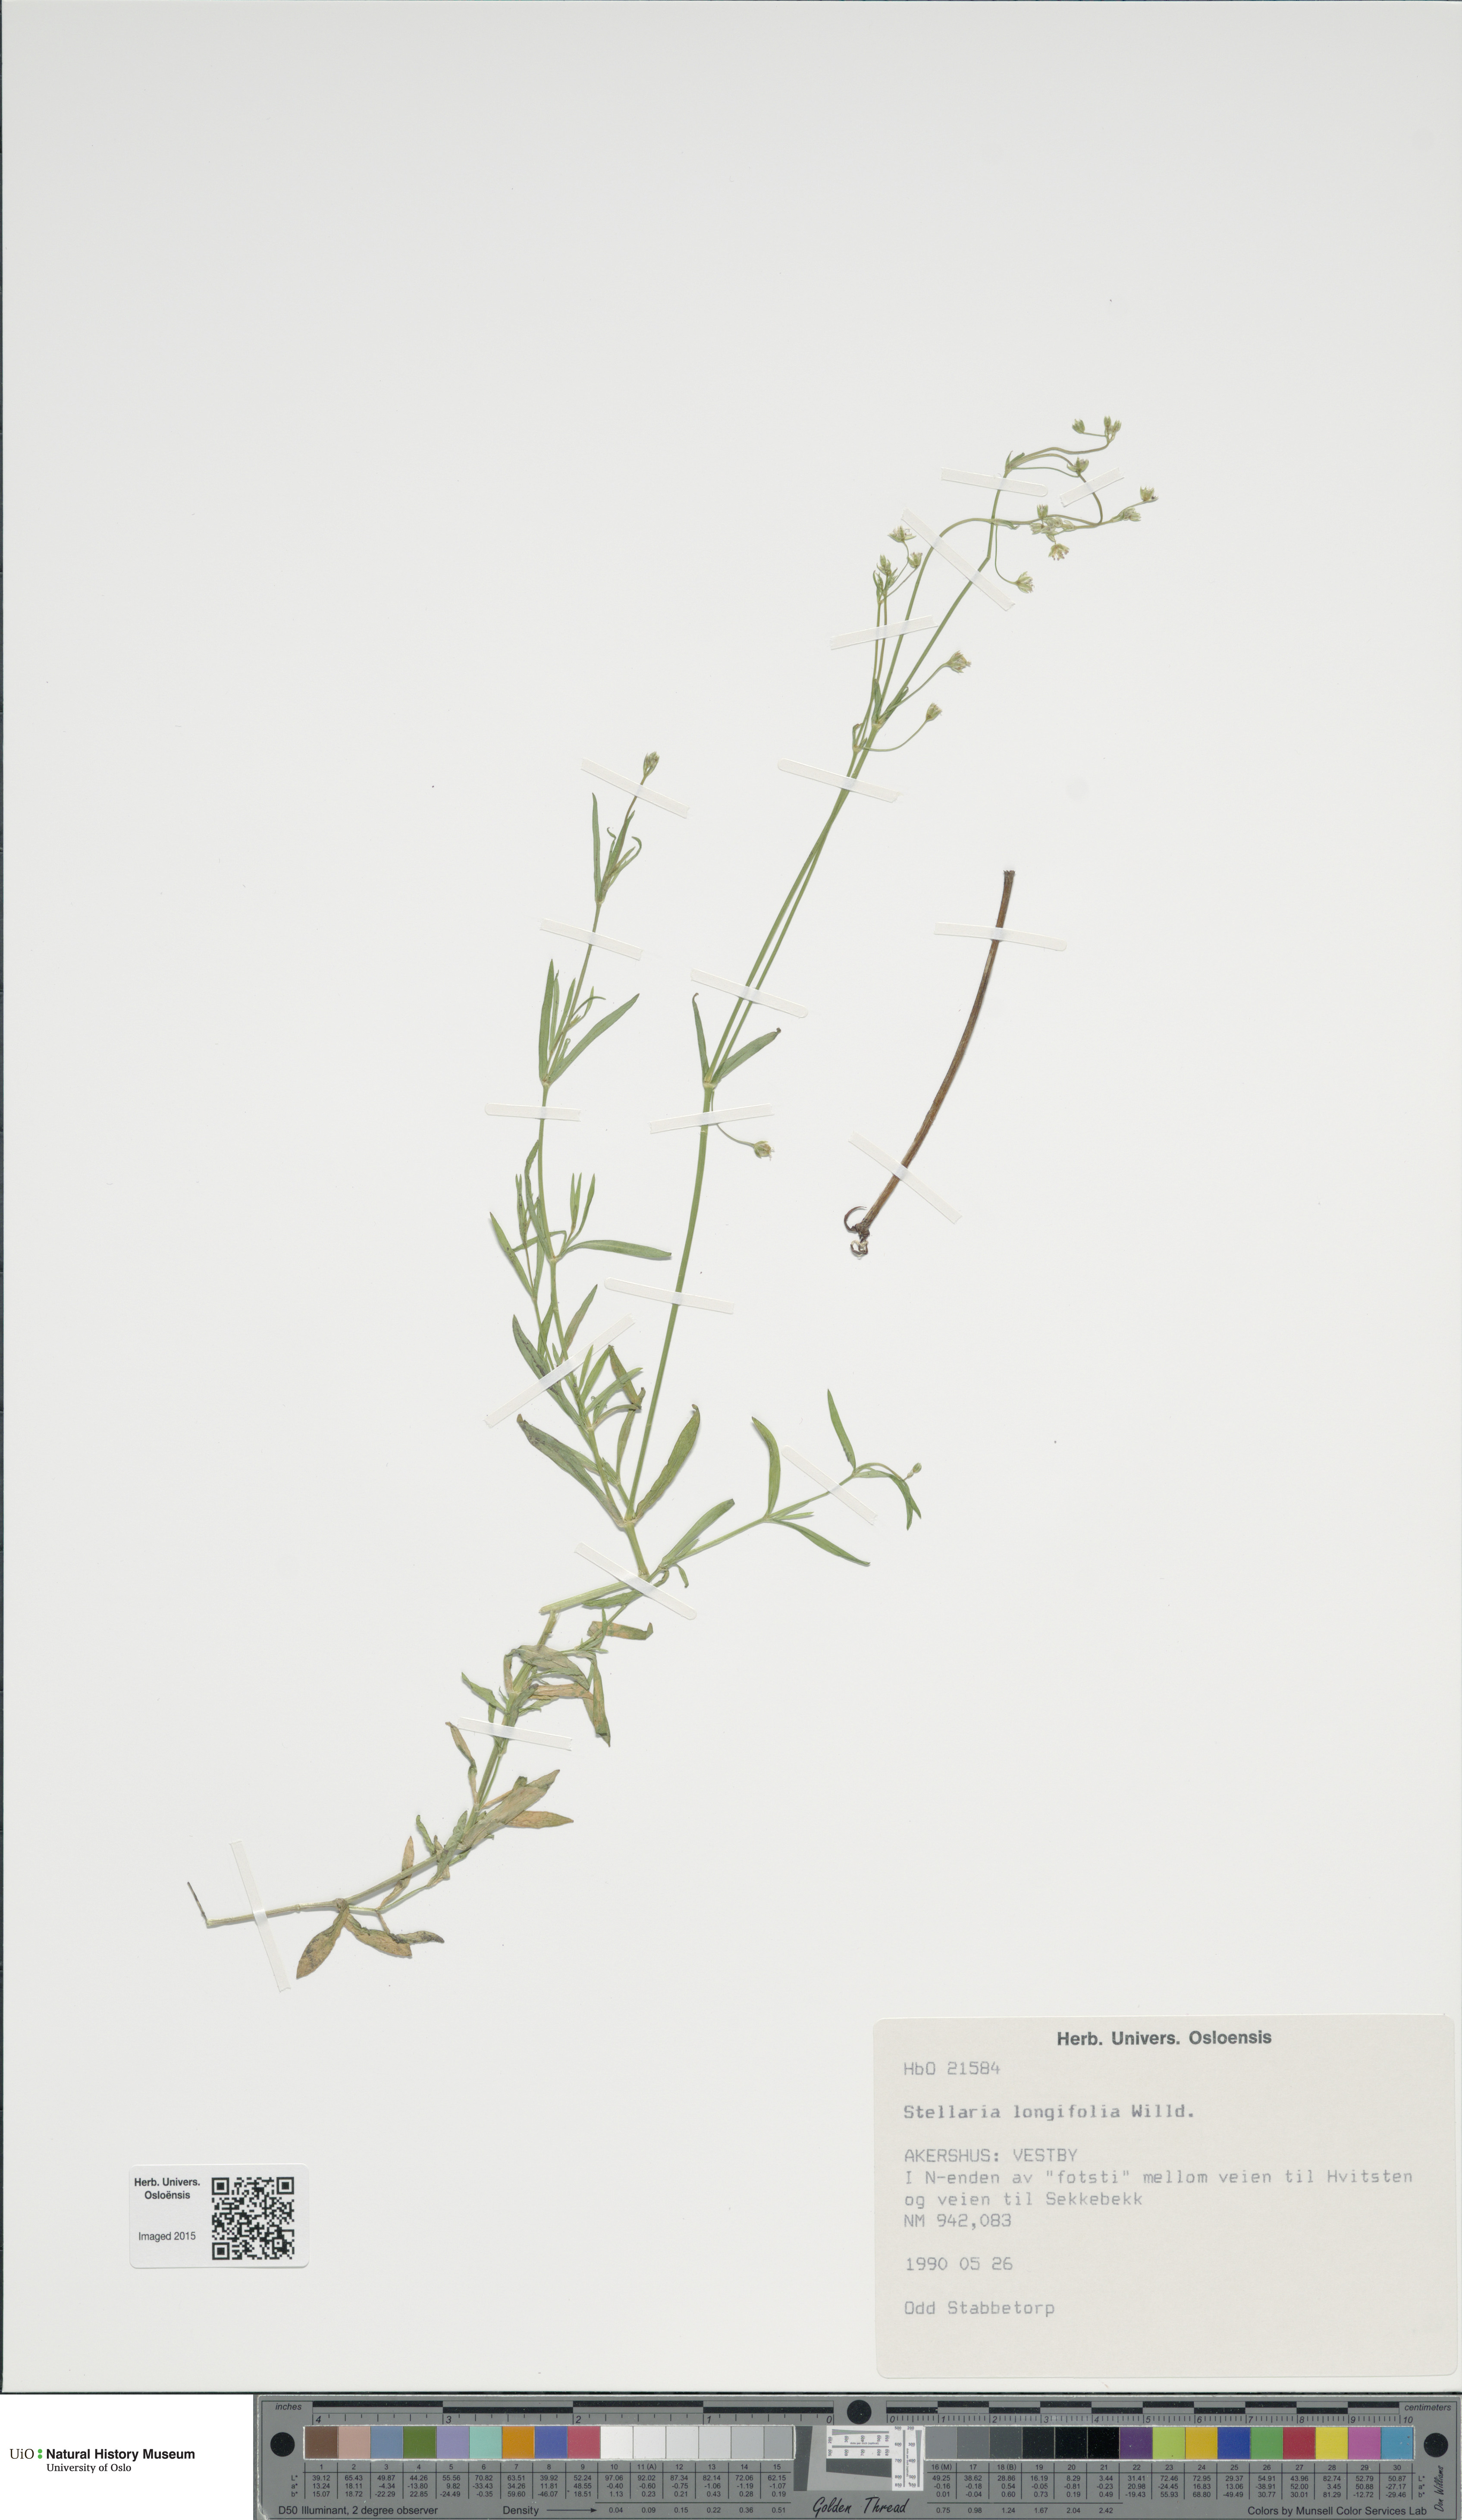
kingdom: Plantae
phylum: Tracheophyta
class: Magnoliopsida
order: Caryophyllales
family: Caryophyllaceae
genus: Stellaria
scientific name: Stellaria longifolia
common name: Long-leaved chickweed
